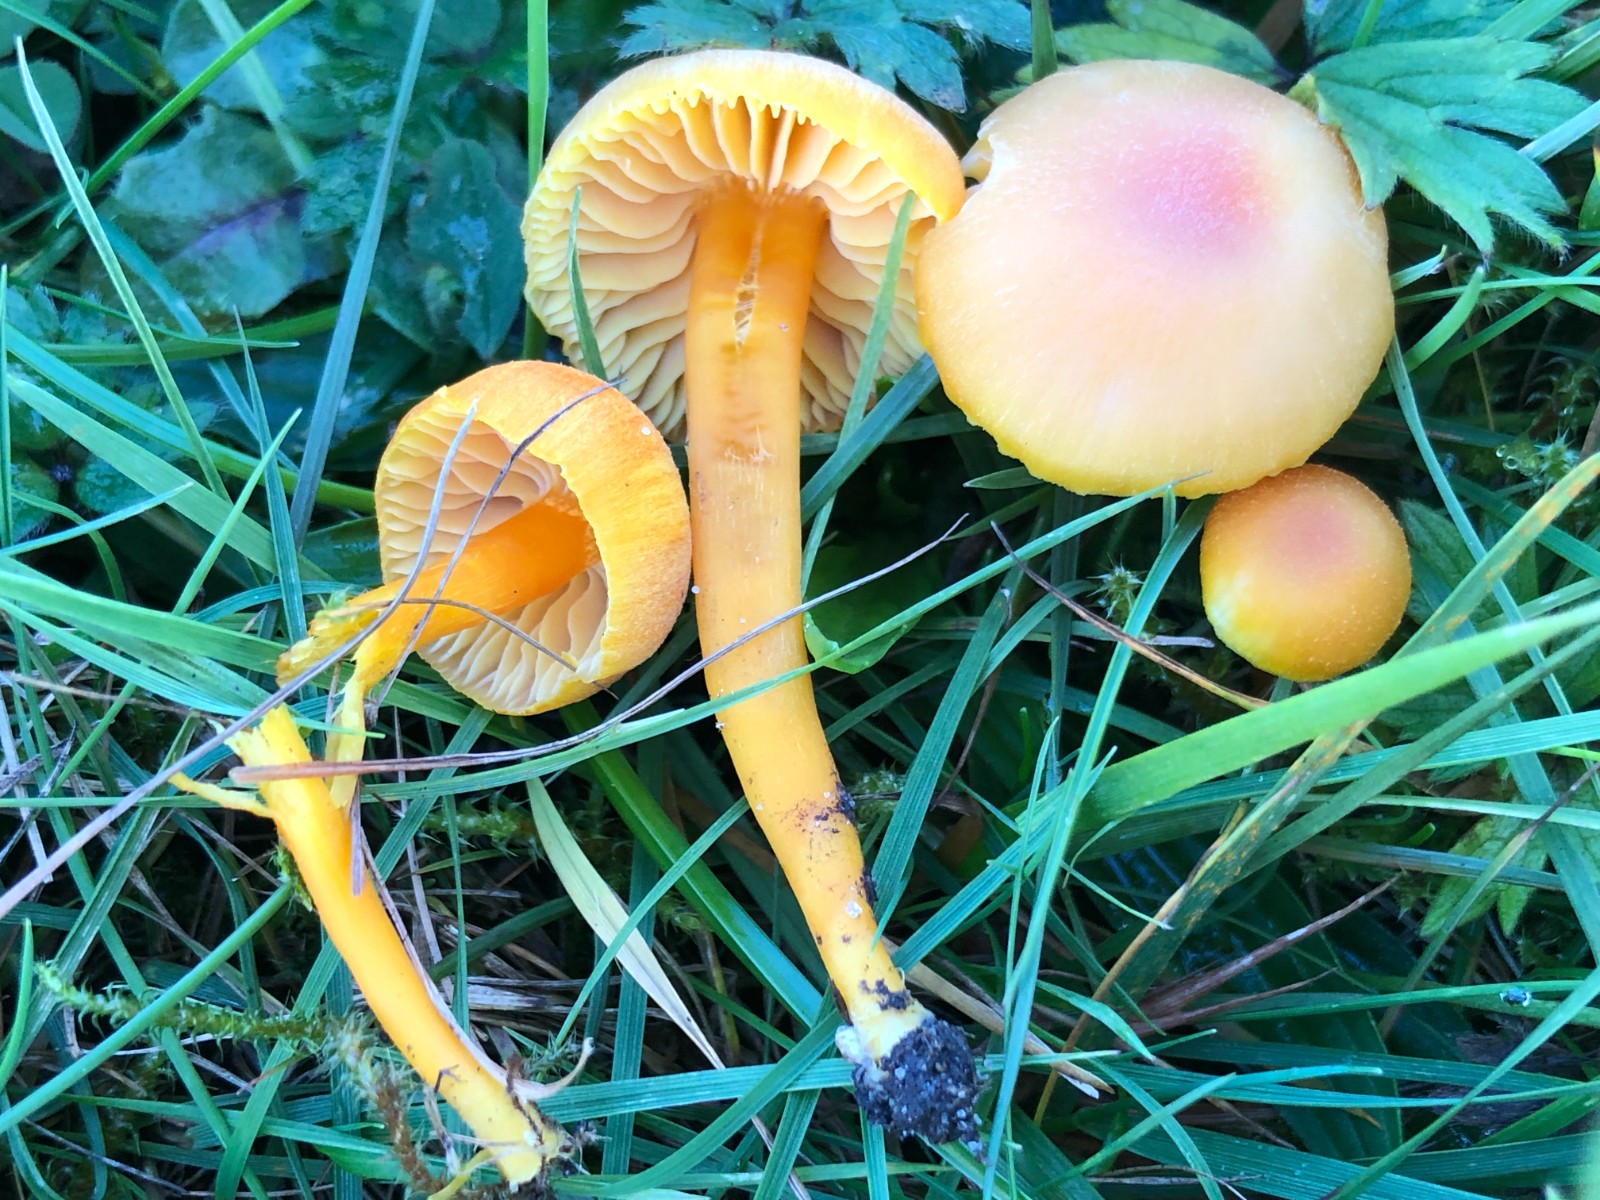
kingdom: Fungi
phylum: Basidiomycota
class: Agaricomycetes
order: Agaricales
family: Hygrophoraceae
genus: Hygrocybe
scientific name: Hygrocybe miniata
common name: mønje-vokshat
